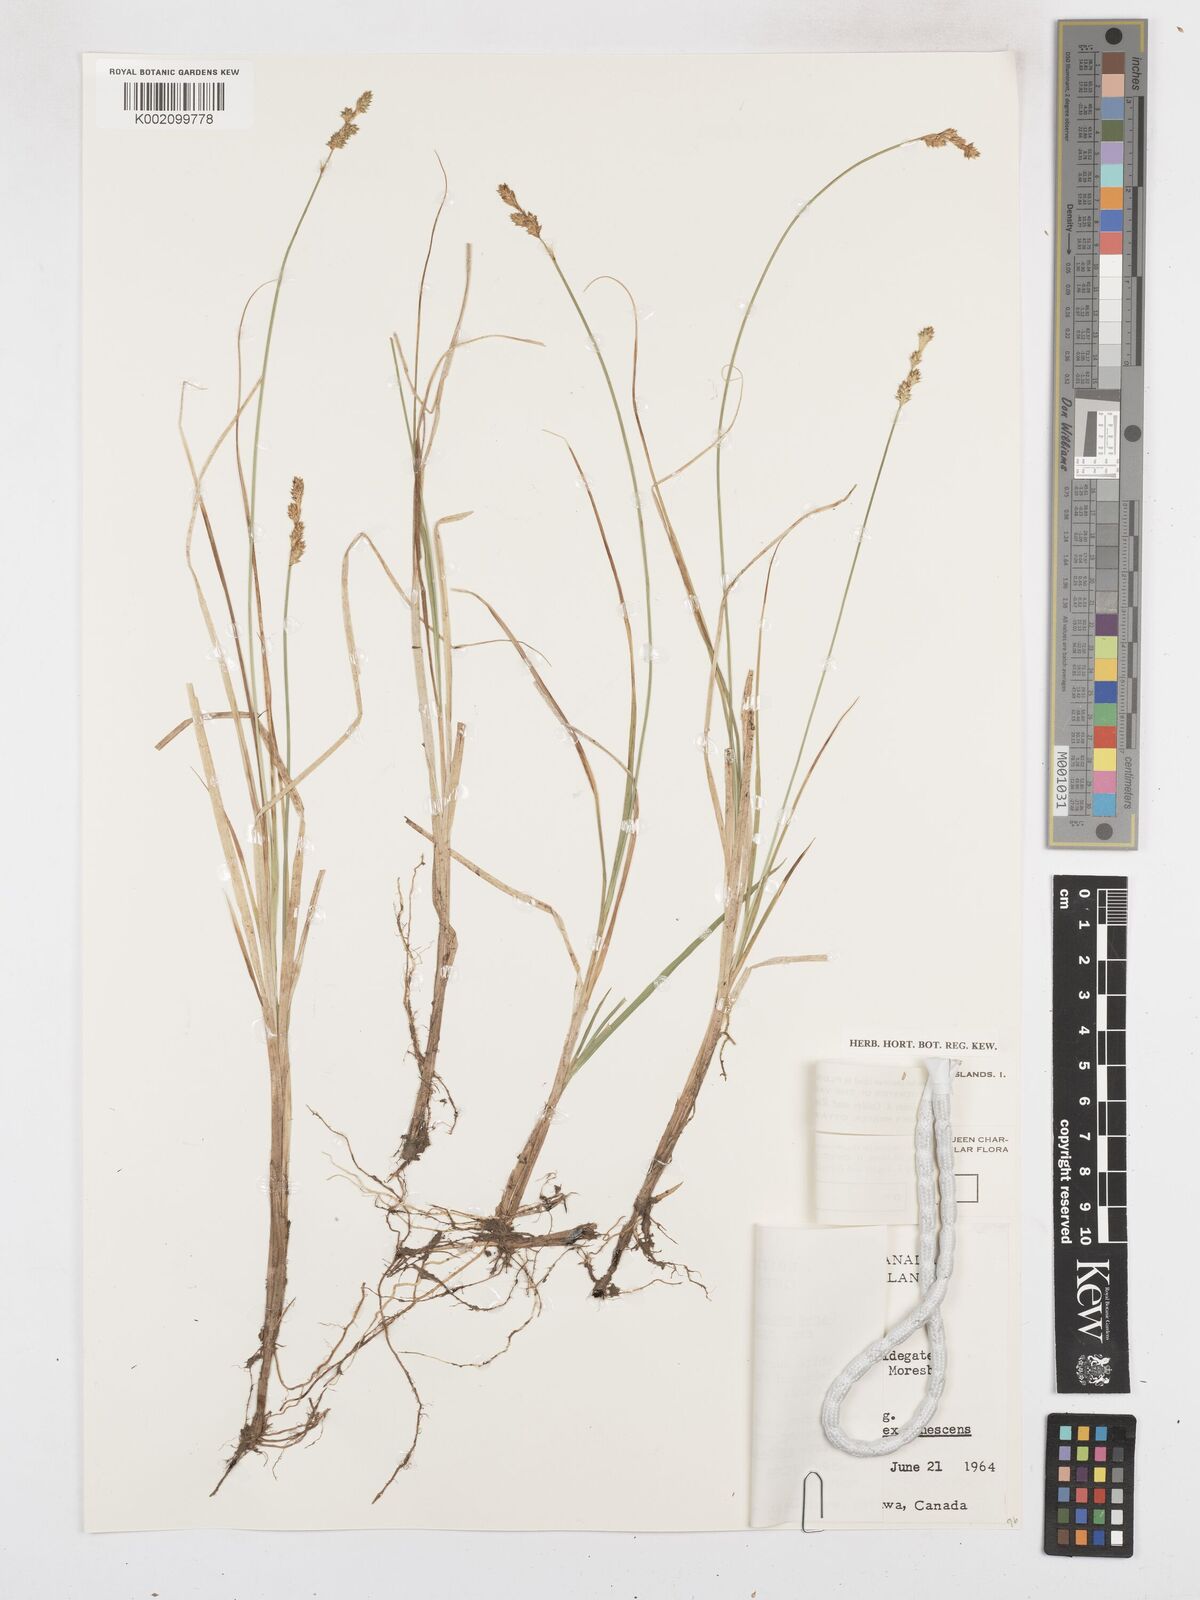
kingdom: Plantae
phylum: Tracheophyta
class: Liliopsida
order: Poales
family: Cyperaceae
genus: Carex
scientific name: Carex curta
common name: White sedge
